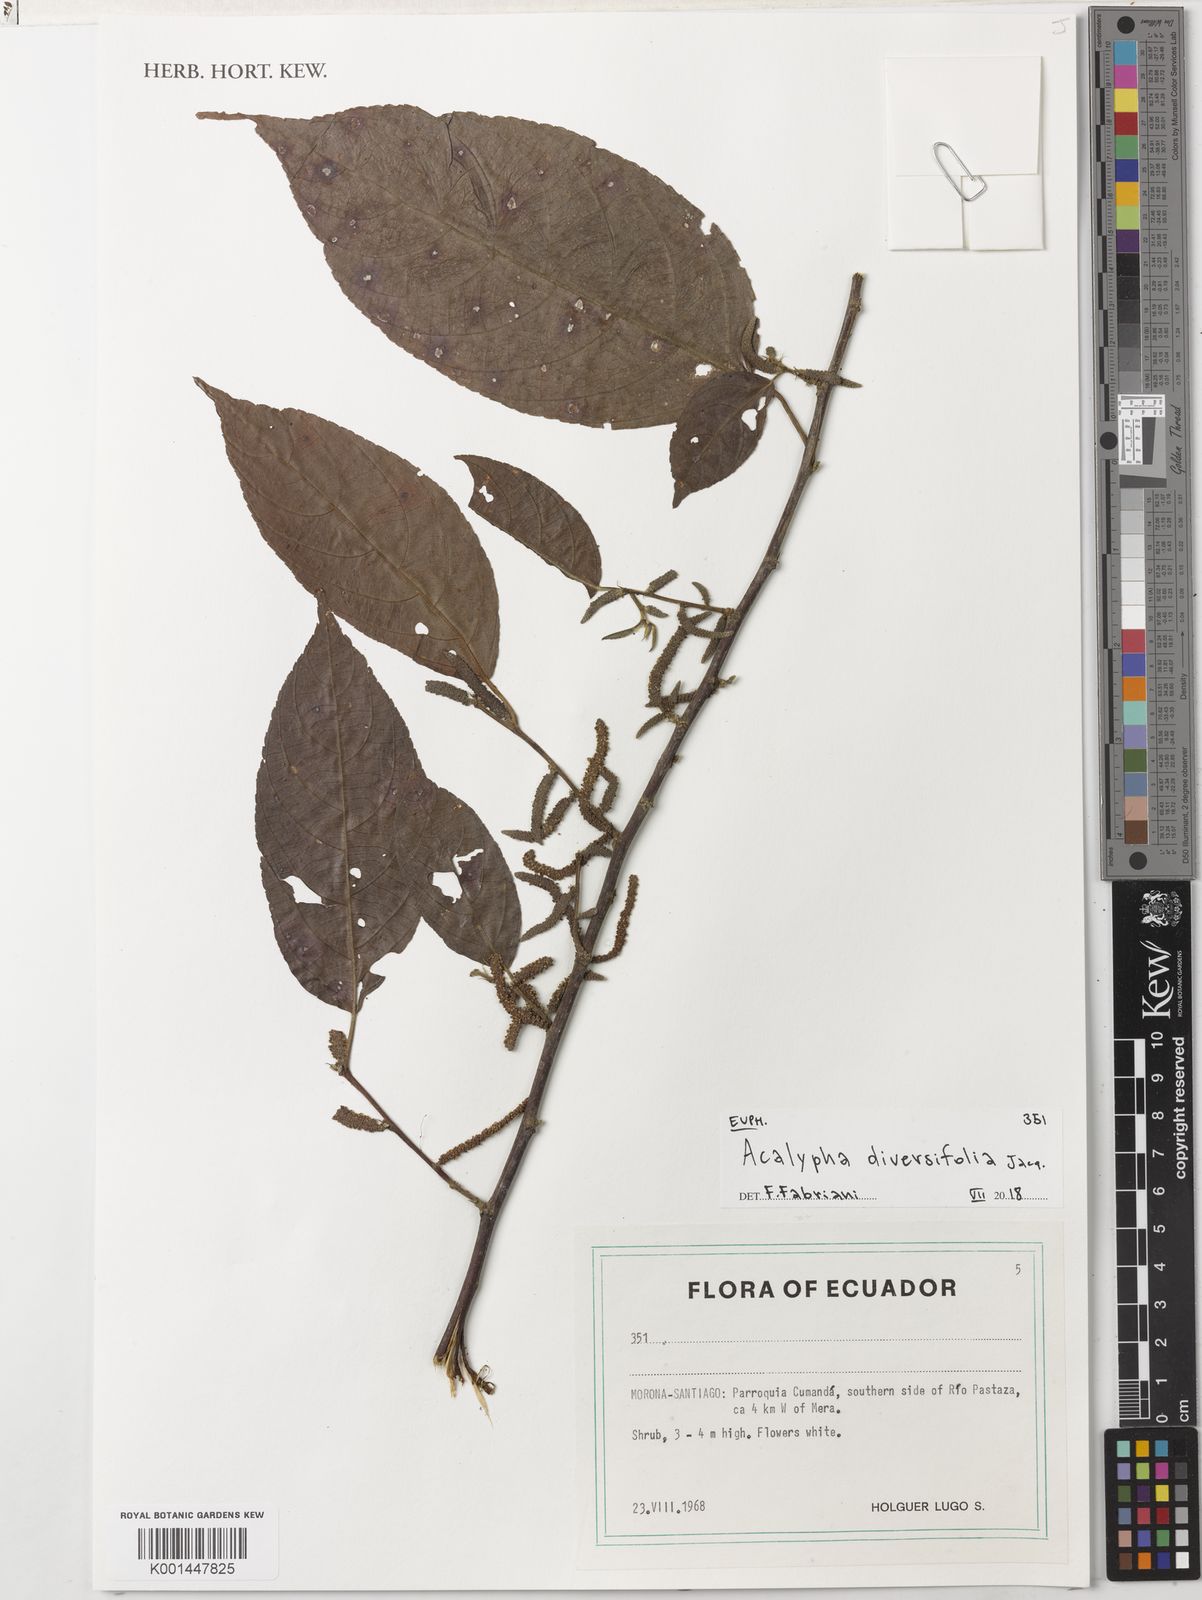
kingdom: Plantae
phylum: Tracheophyta
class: Magnoliopsida
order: Malpighiales
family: Euphorbiaceae
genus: Acalypha
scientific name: Acalypha diversifolia
